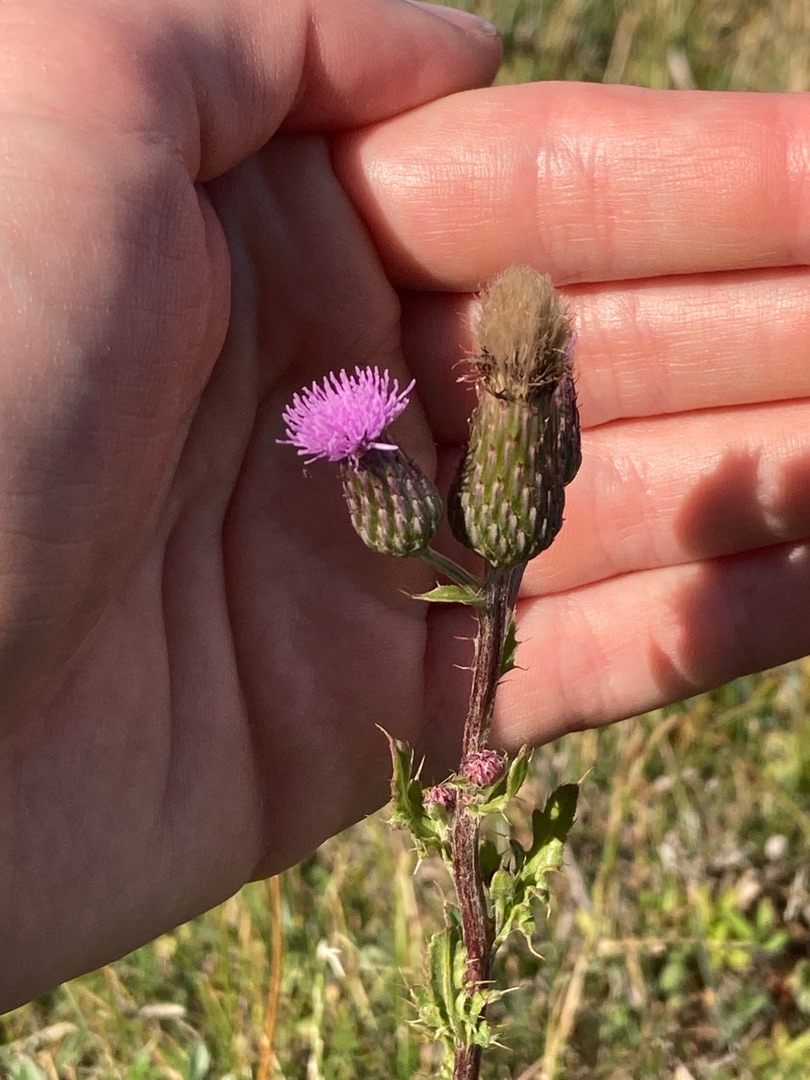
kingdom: Plantae
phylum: Tracheophyta
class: Magnoliopsida
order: Asterales
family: Asteraceae
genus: Cirsium
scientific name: Cirsium arvense
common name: Ager-tidsel
